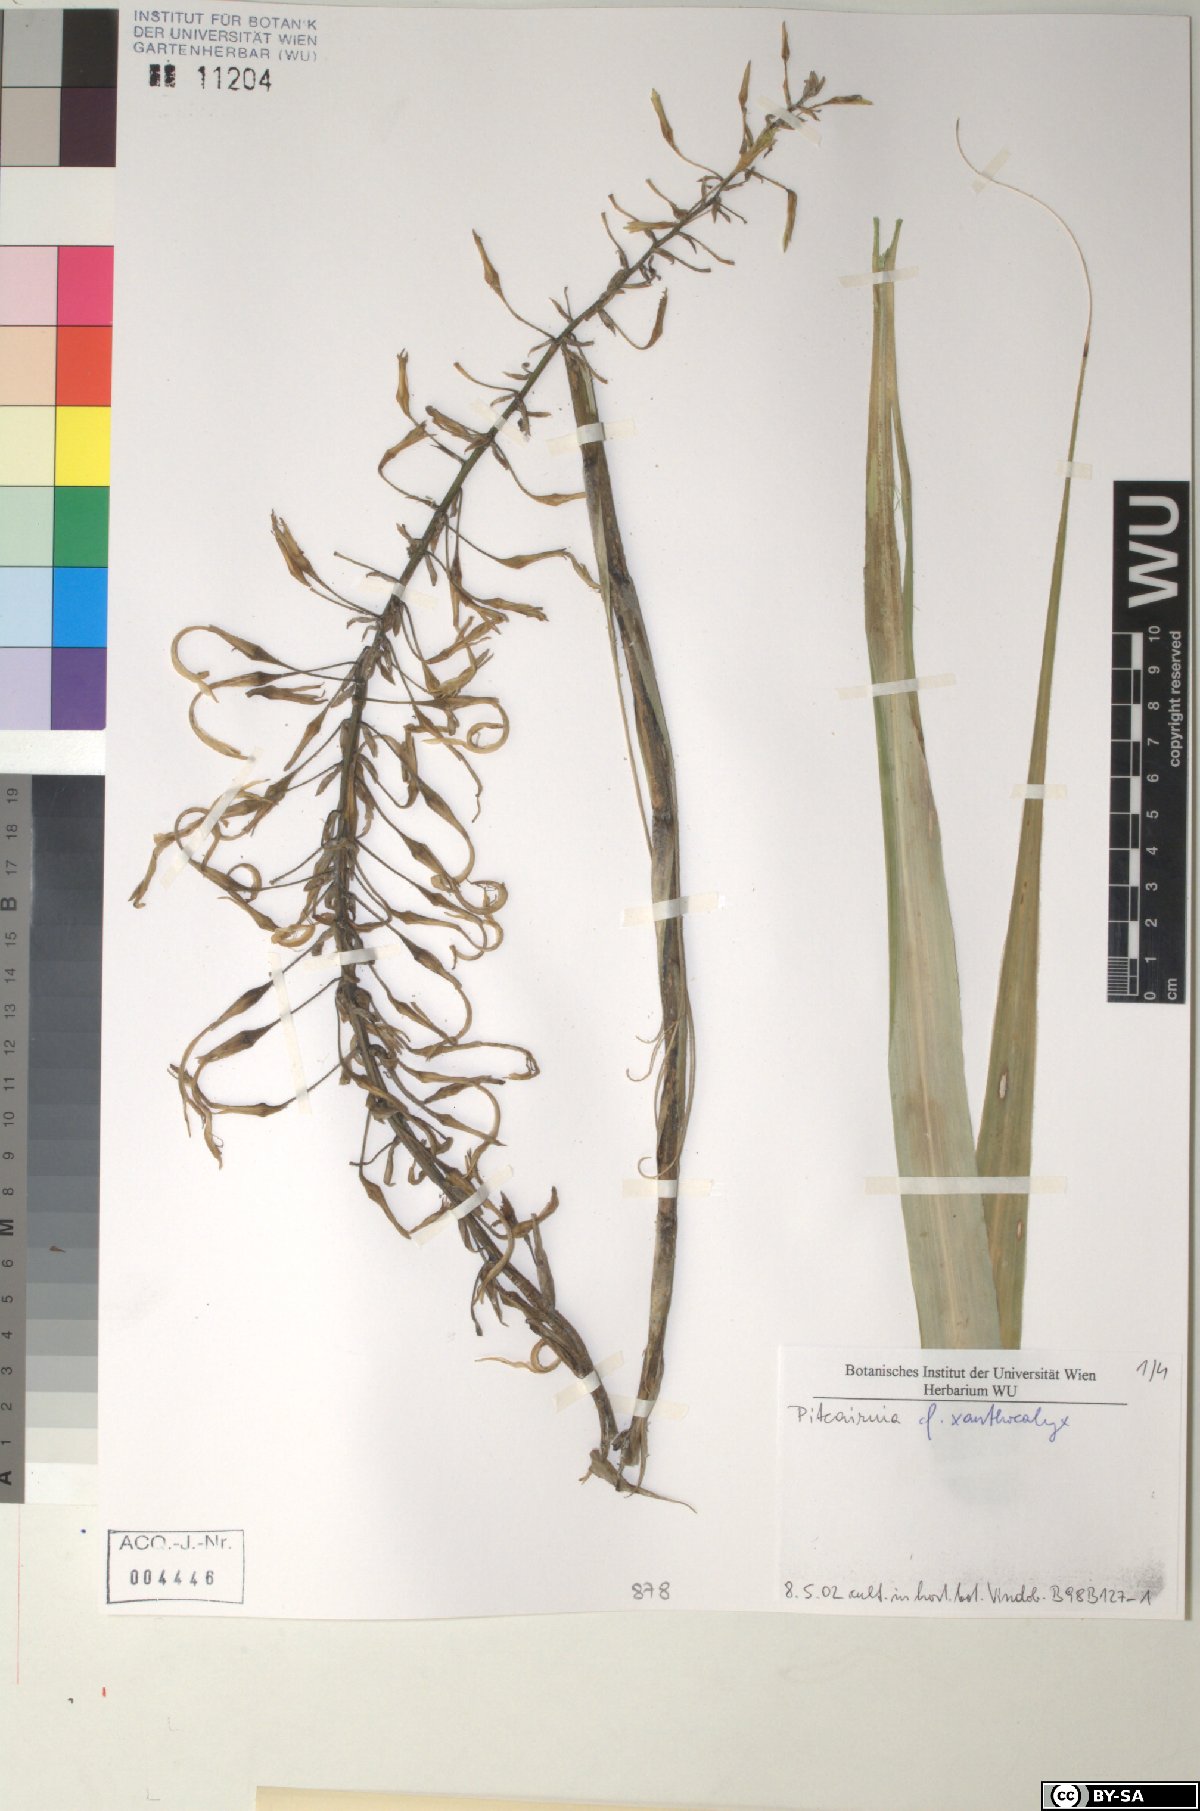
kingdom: Plantae
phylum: Tracheophyta
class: Liliopsida
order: Poales
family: Bromeliaceae
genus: Pitcairnia
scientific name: Pitcairnia xanthocalyx
